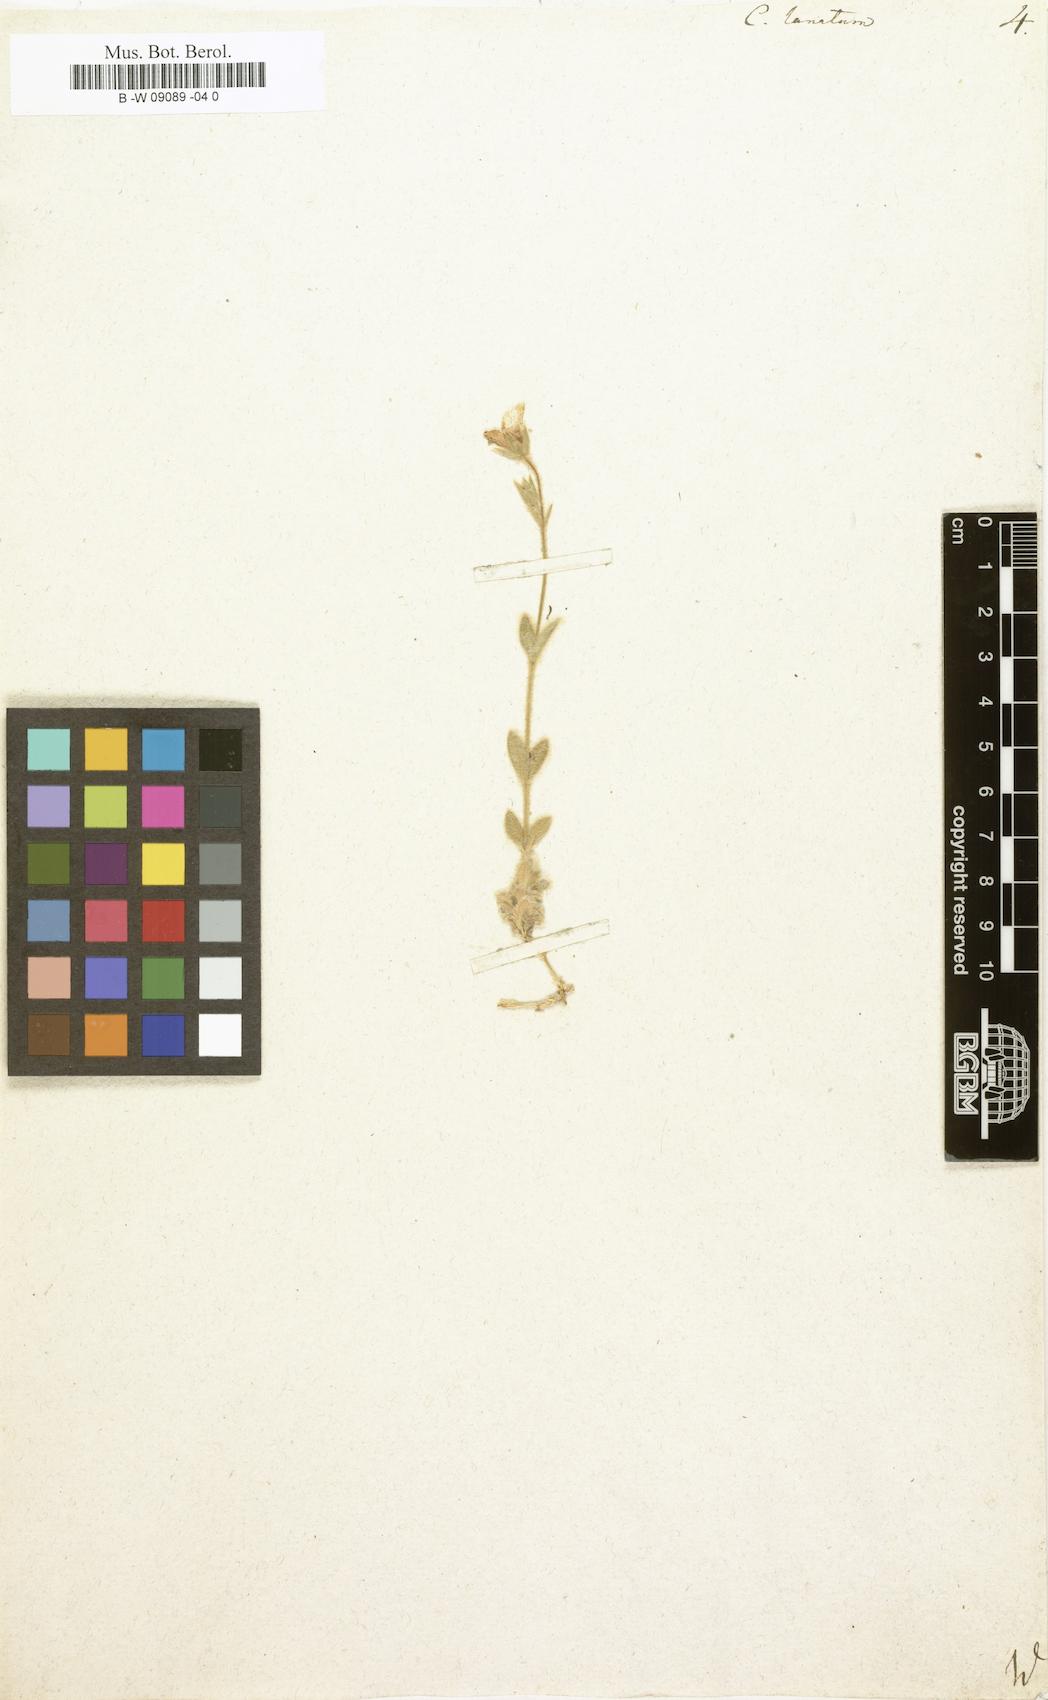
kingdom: Plantae
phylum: Tracheophyta
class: Magnoliopsida
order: Caryophyllales
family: Caryophyllaceae
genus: Cerastium
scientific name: Cerastium alpinum
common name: Alpine mouse-ear
